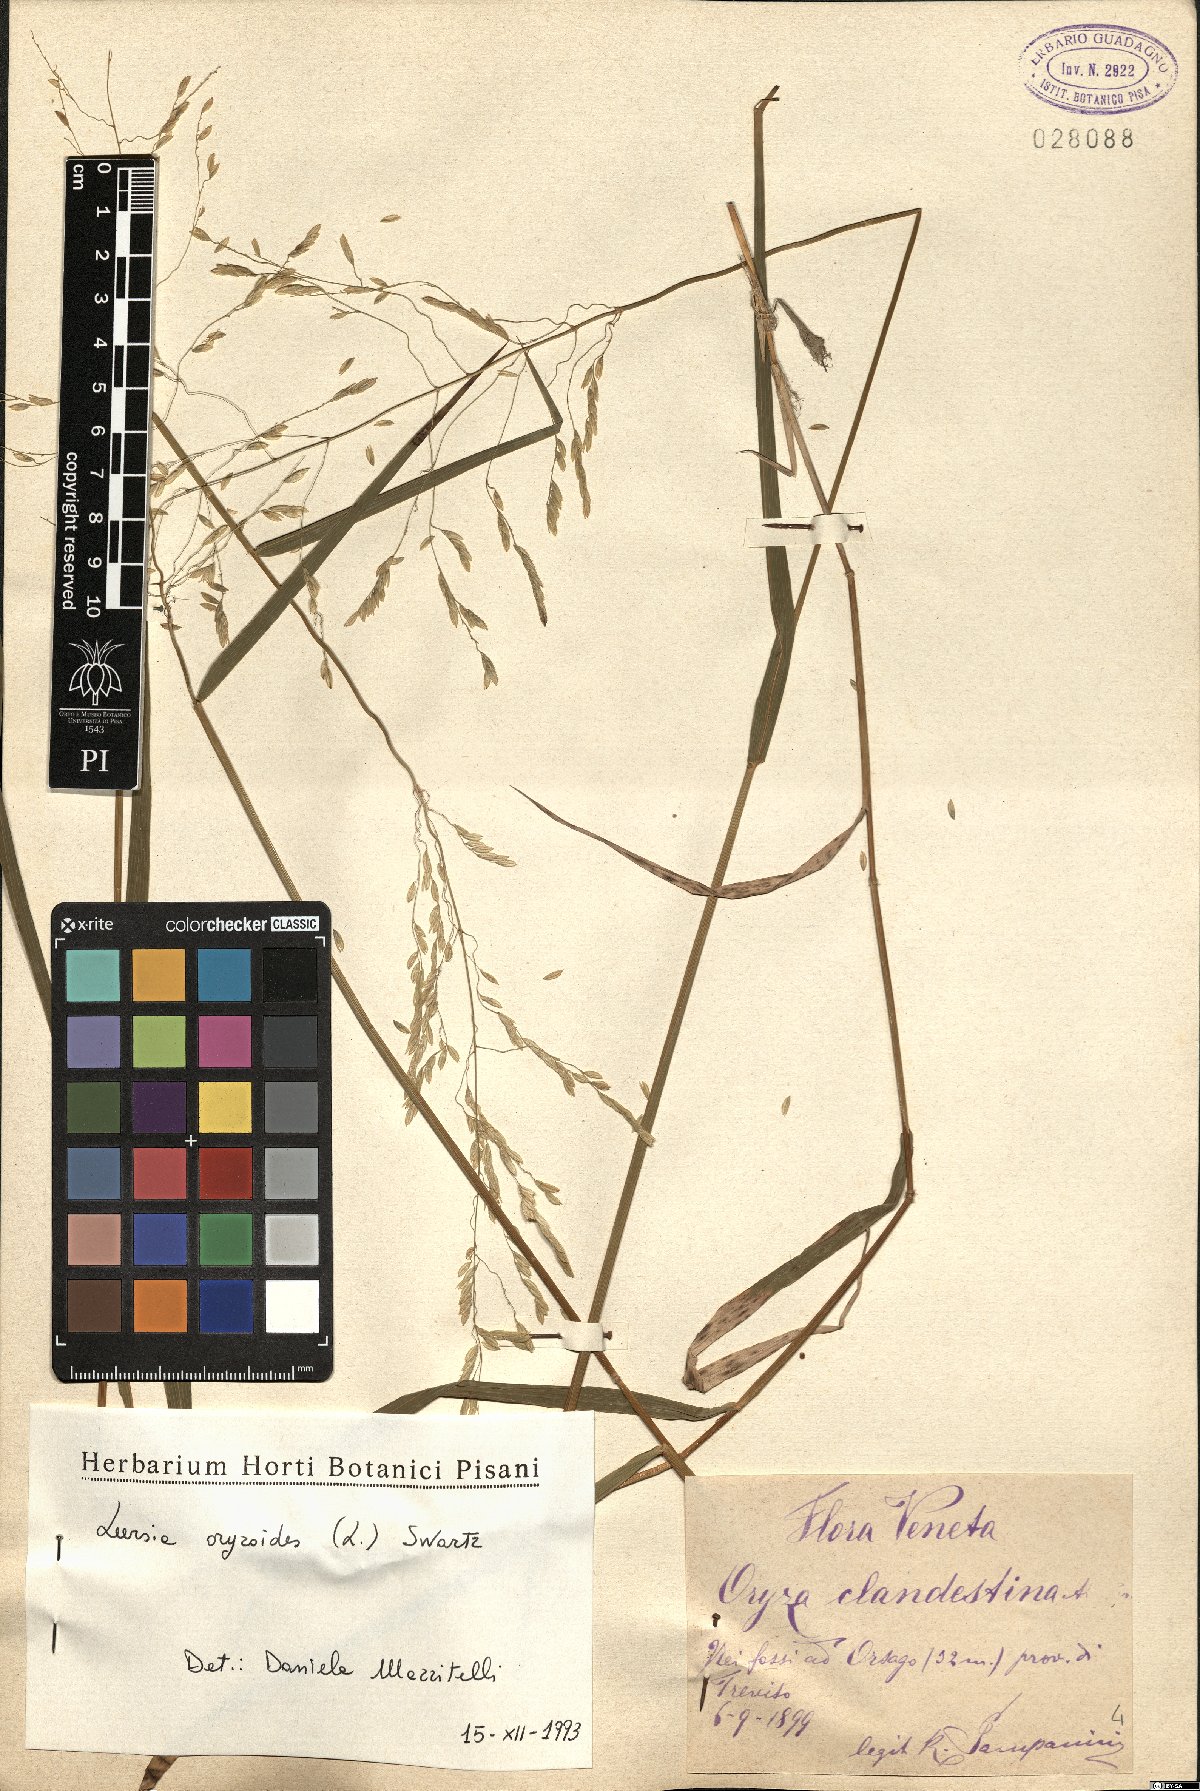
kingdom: Plantae
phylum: Tracheophyta
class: Liliopsida
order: Poales
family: Poaceae
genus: Leersia
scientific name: Leersia oryzoides
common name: Cut-grass
